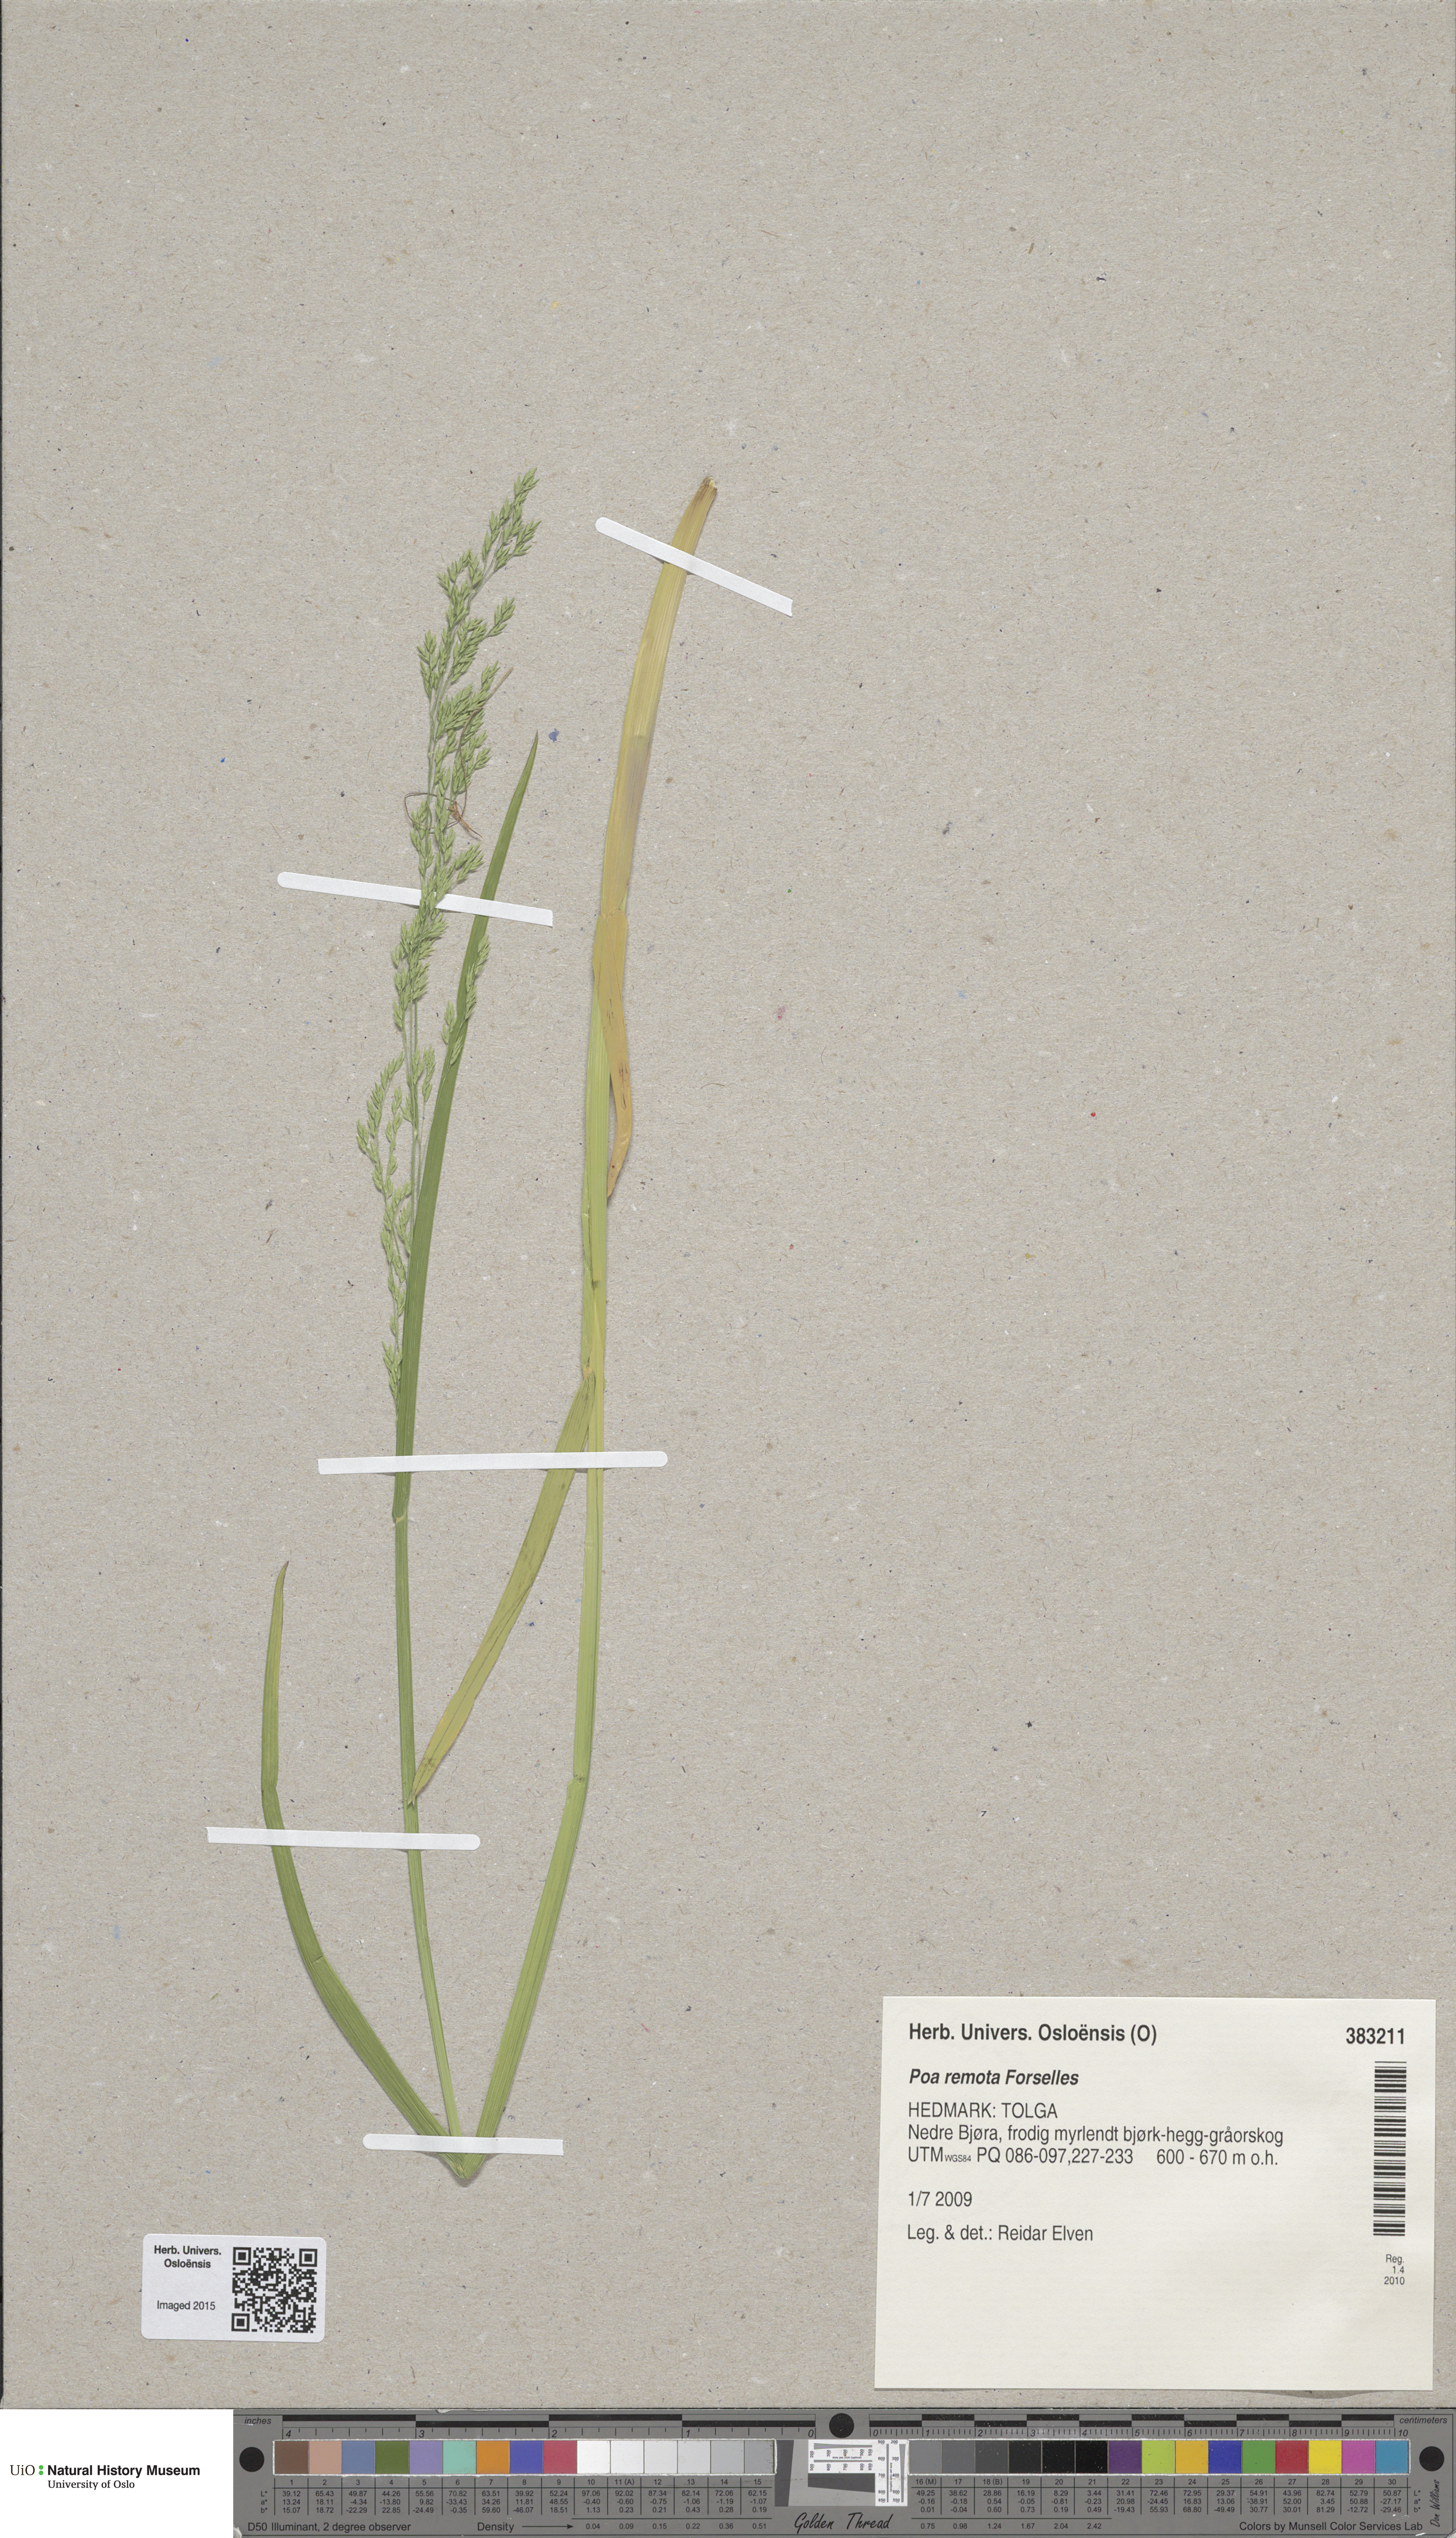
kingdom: Plantae
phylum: Tracheophyta
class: Liliopsida
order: Poales
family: Poaceae
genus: Poa
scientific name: Poa remota
